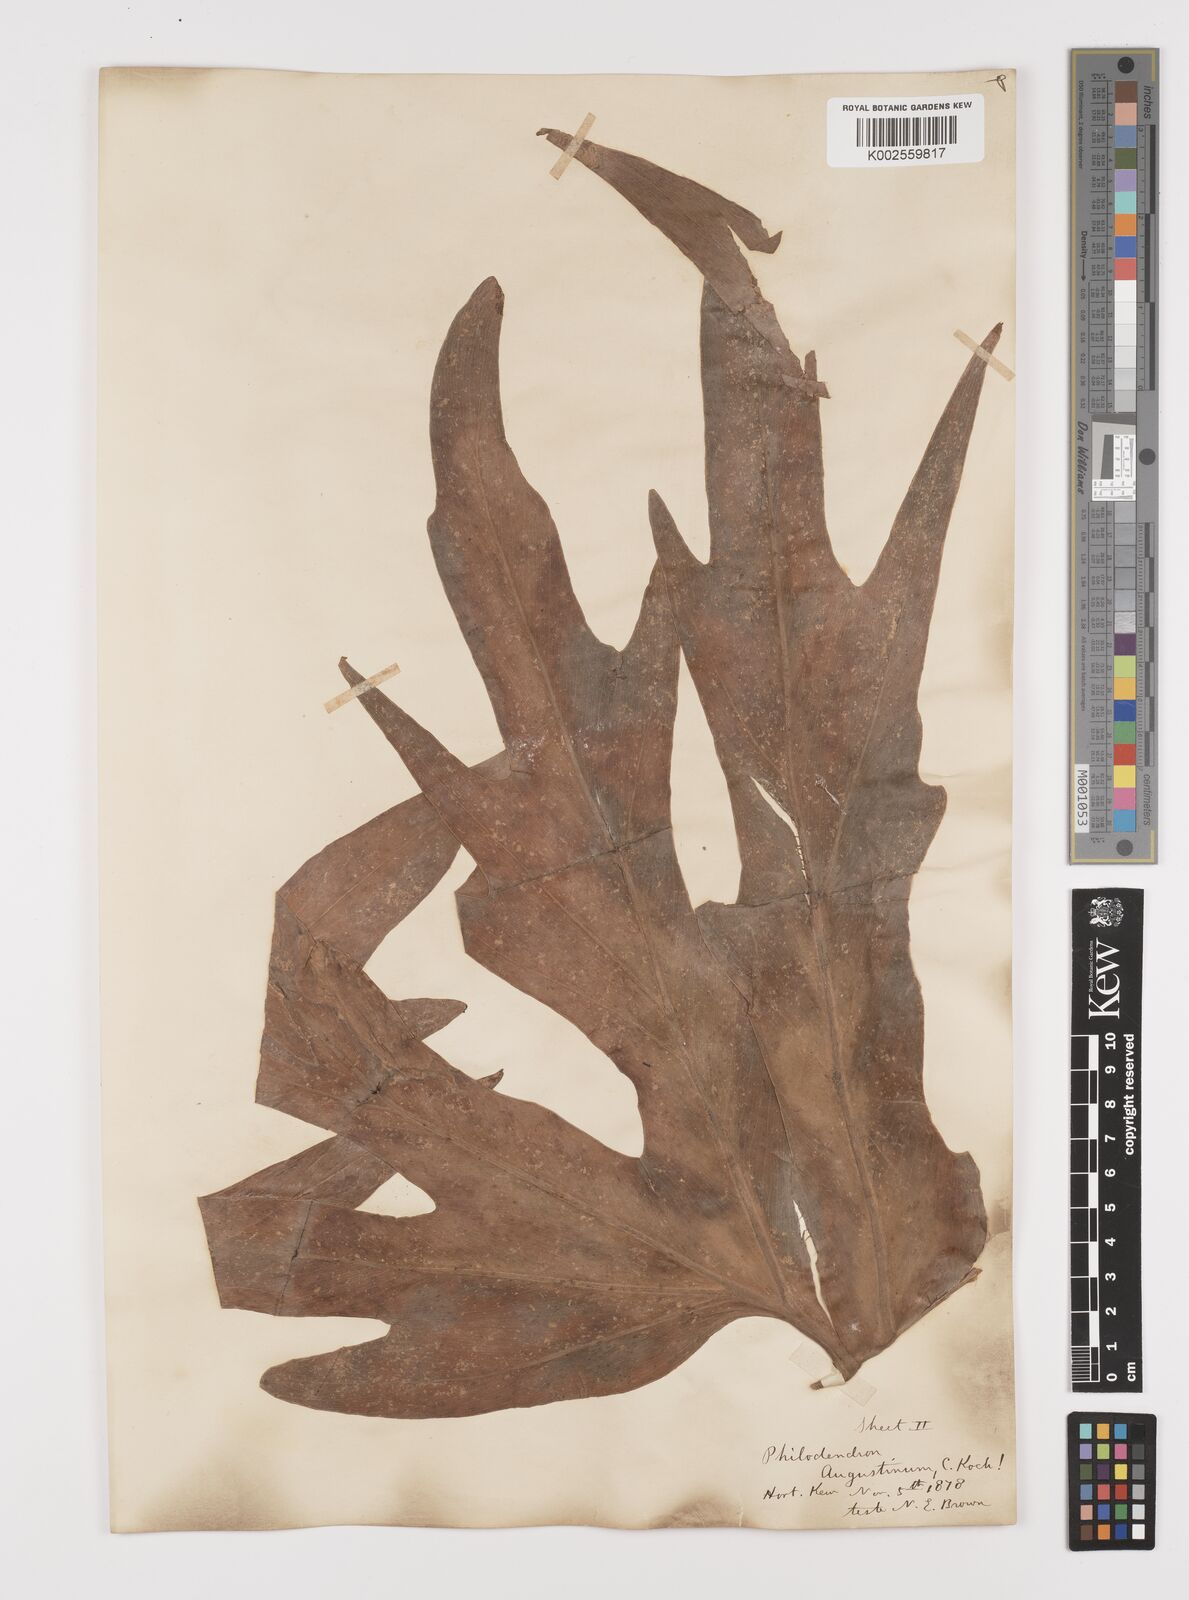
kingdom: Plantae
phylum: Tracheophyta
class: Liliopsida
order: Alismatales
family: Araceae
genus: Philodendron
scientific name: Philodendron radiatum
